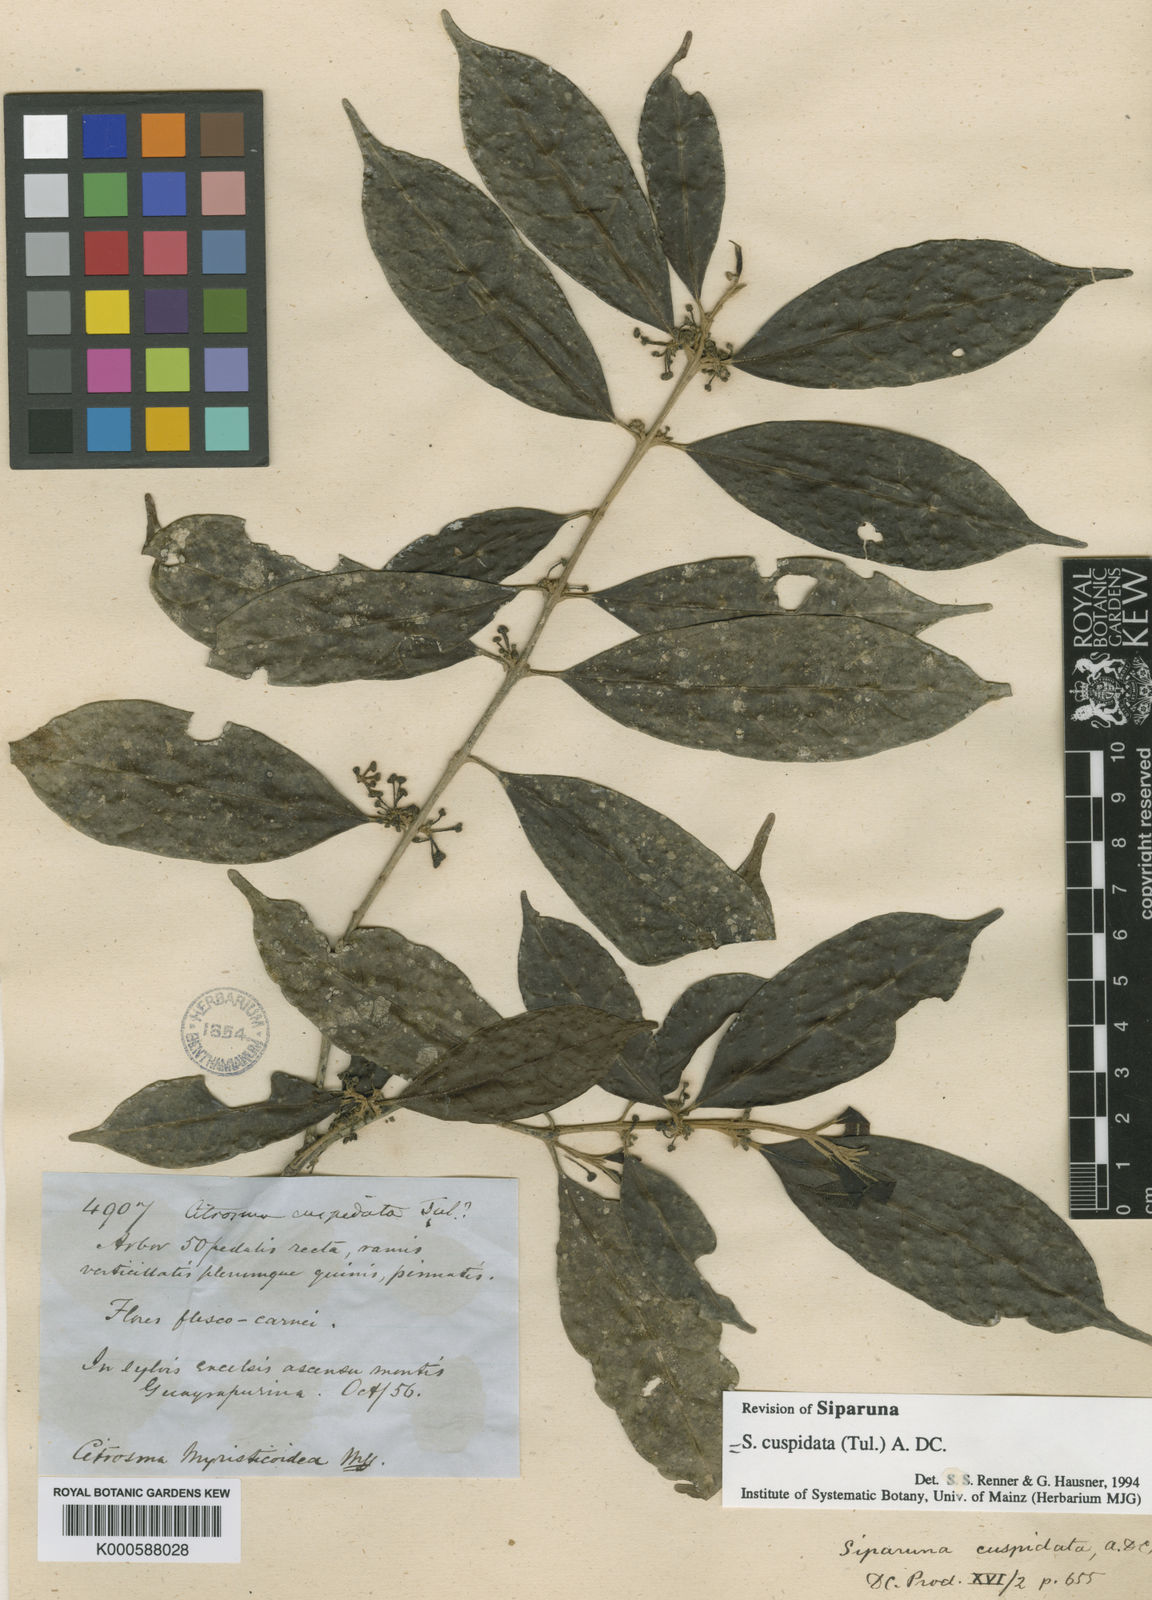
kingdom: Plantae
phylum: Tracheophyta
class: Magnoliopsida
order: Laurales
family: Siparunaceae
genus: Siparuna
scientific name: Siparuna cuspidata
